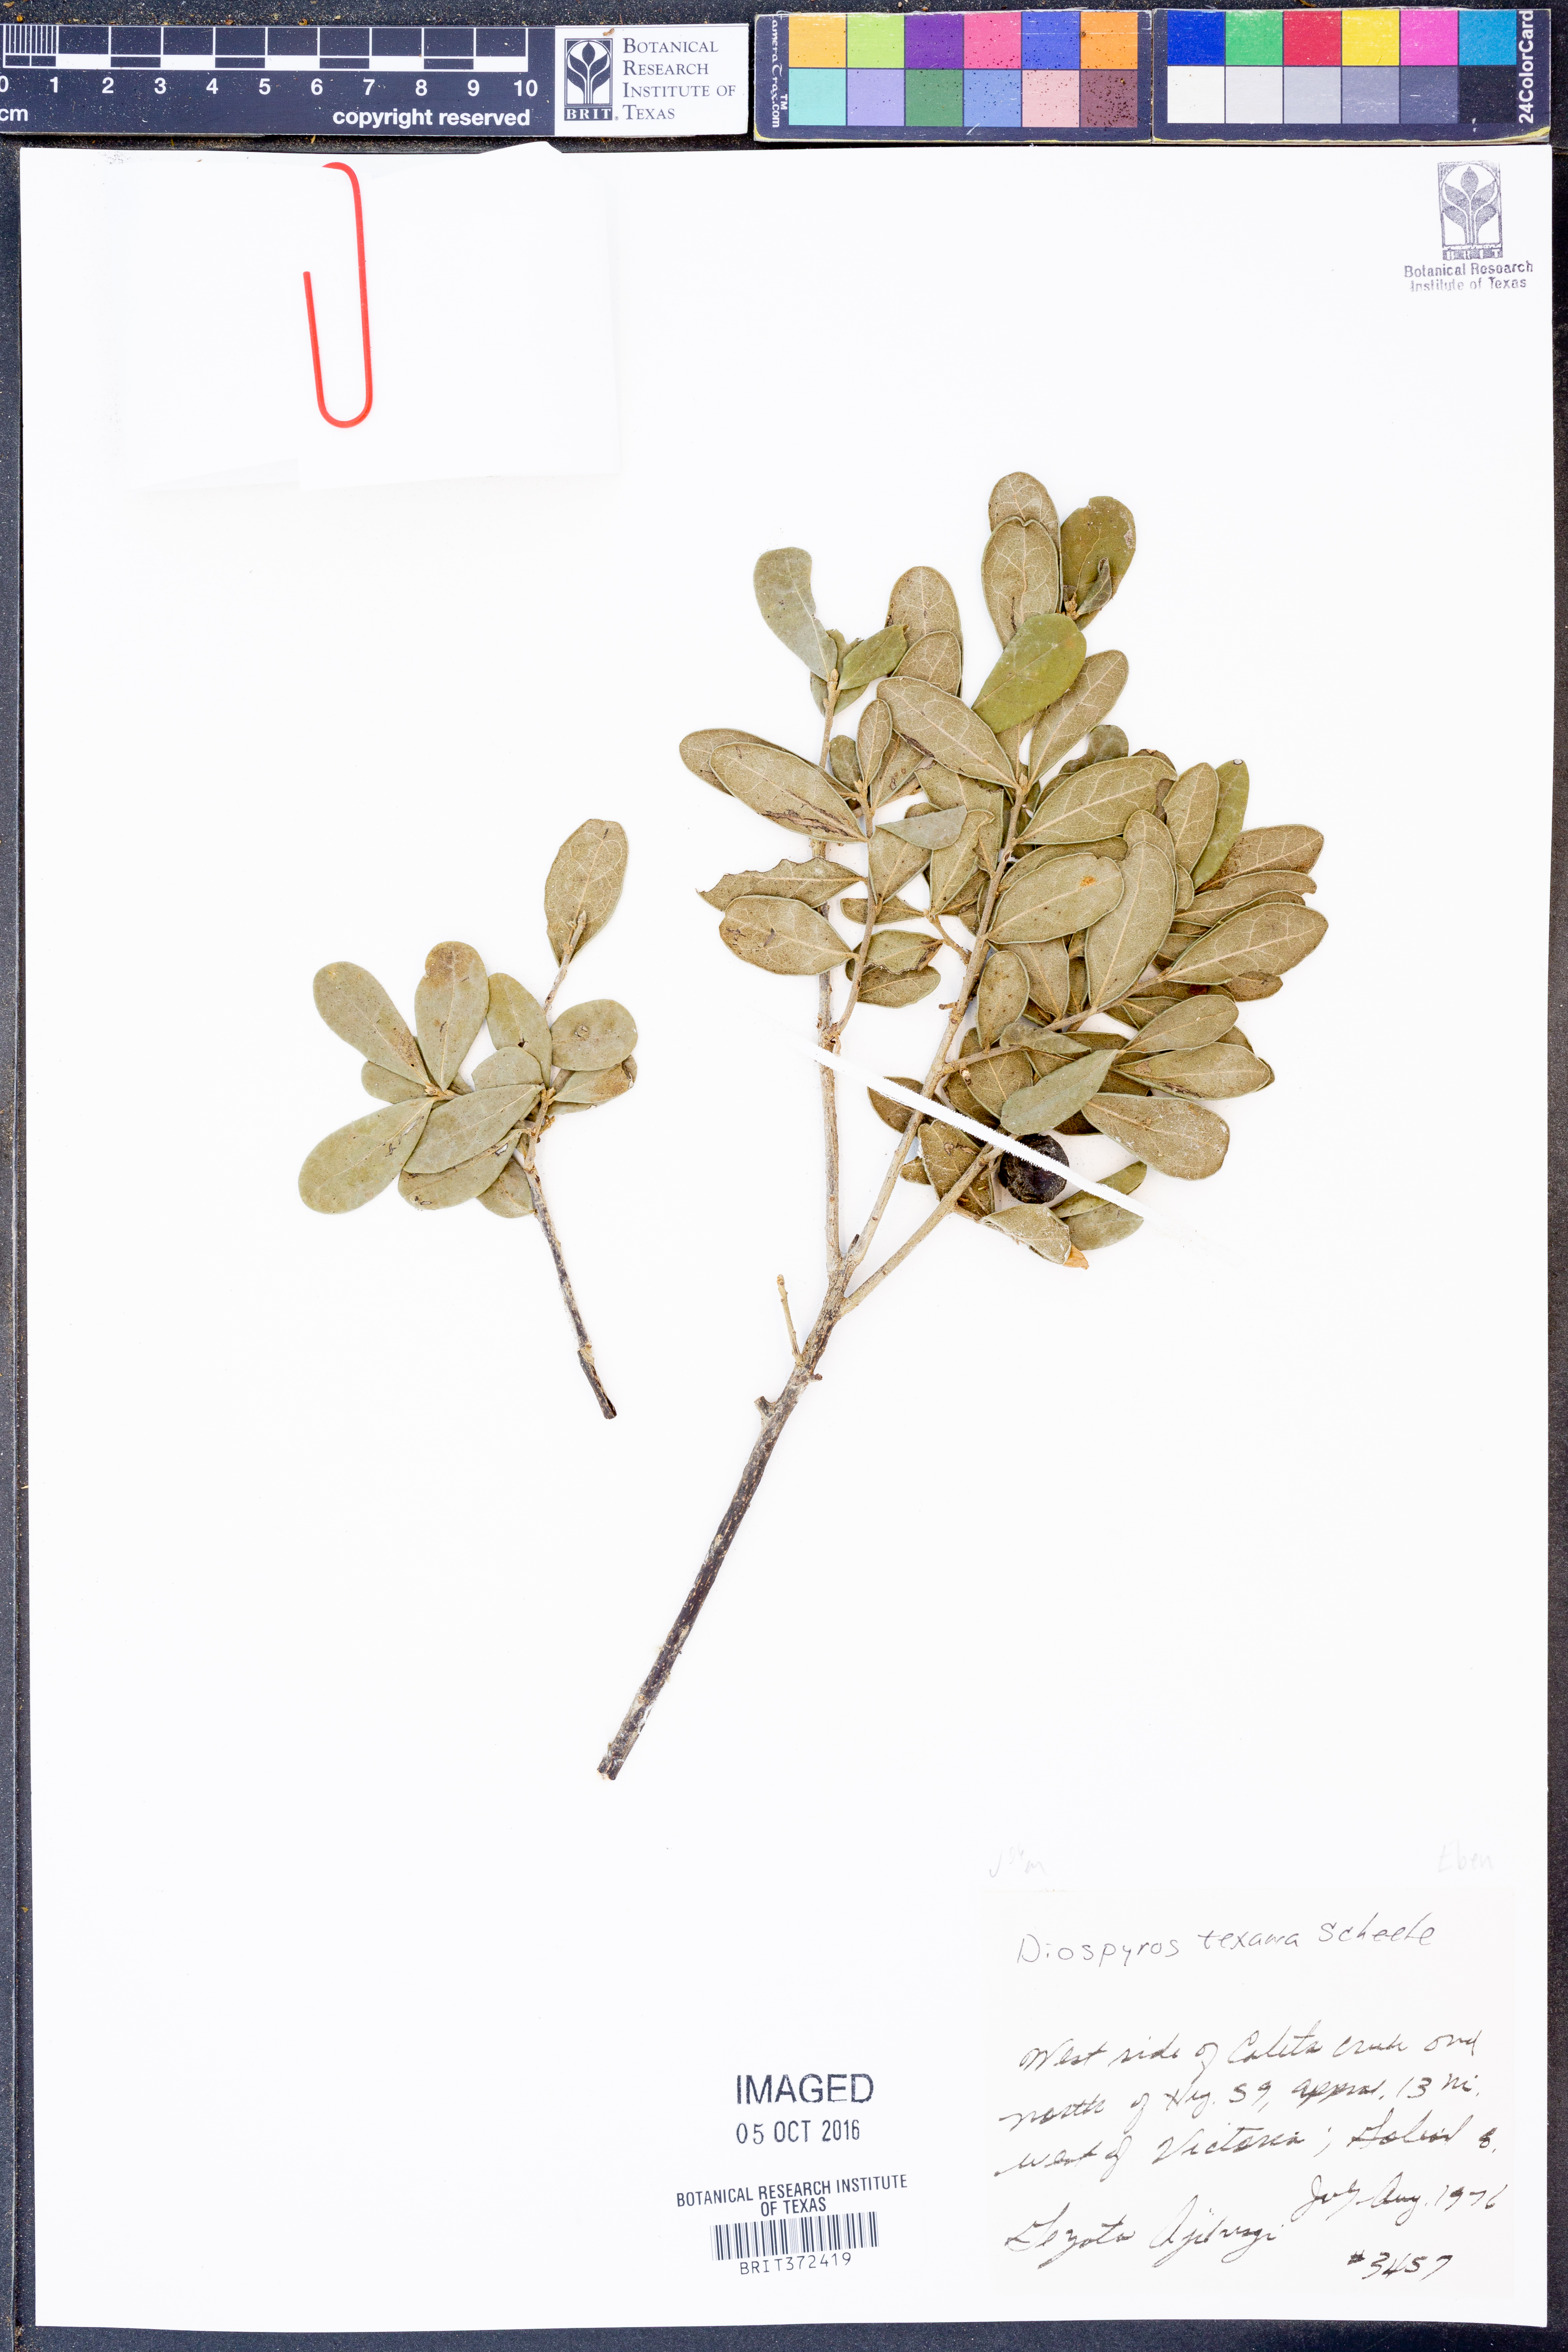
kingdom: Plantae
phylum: Tracheophyta
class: Magnoliopsida
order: Ericales
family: Ebenaceae
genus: Diospyros
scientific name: Diospyros texana
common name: Texas persimmon
